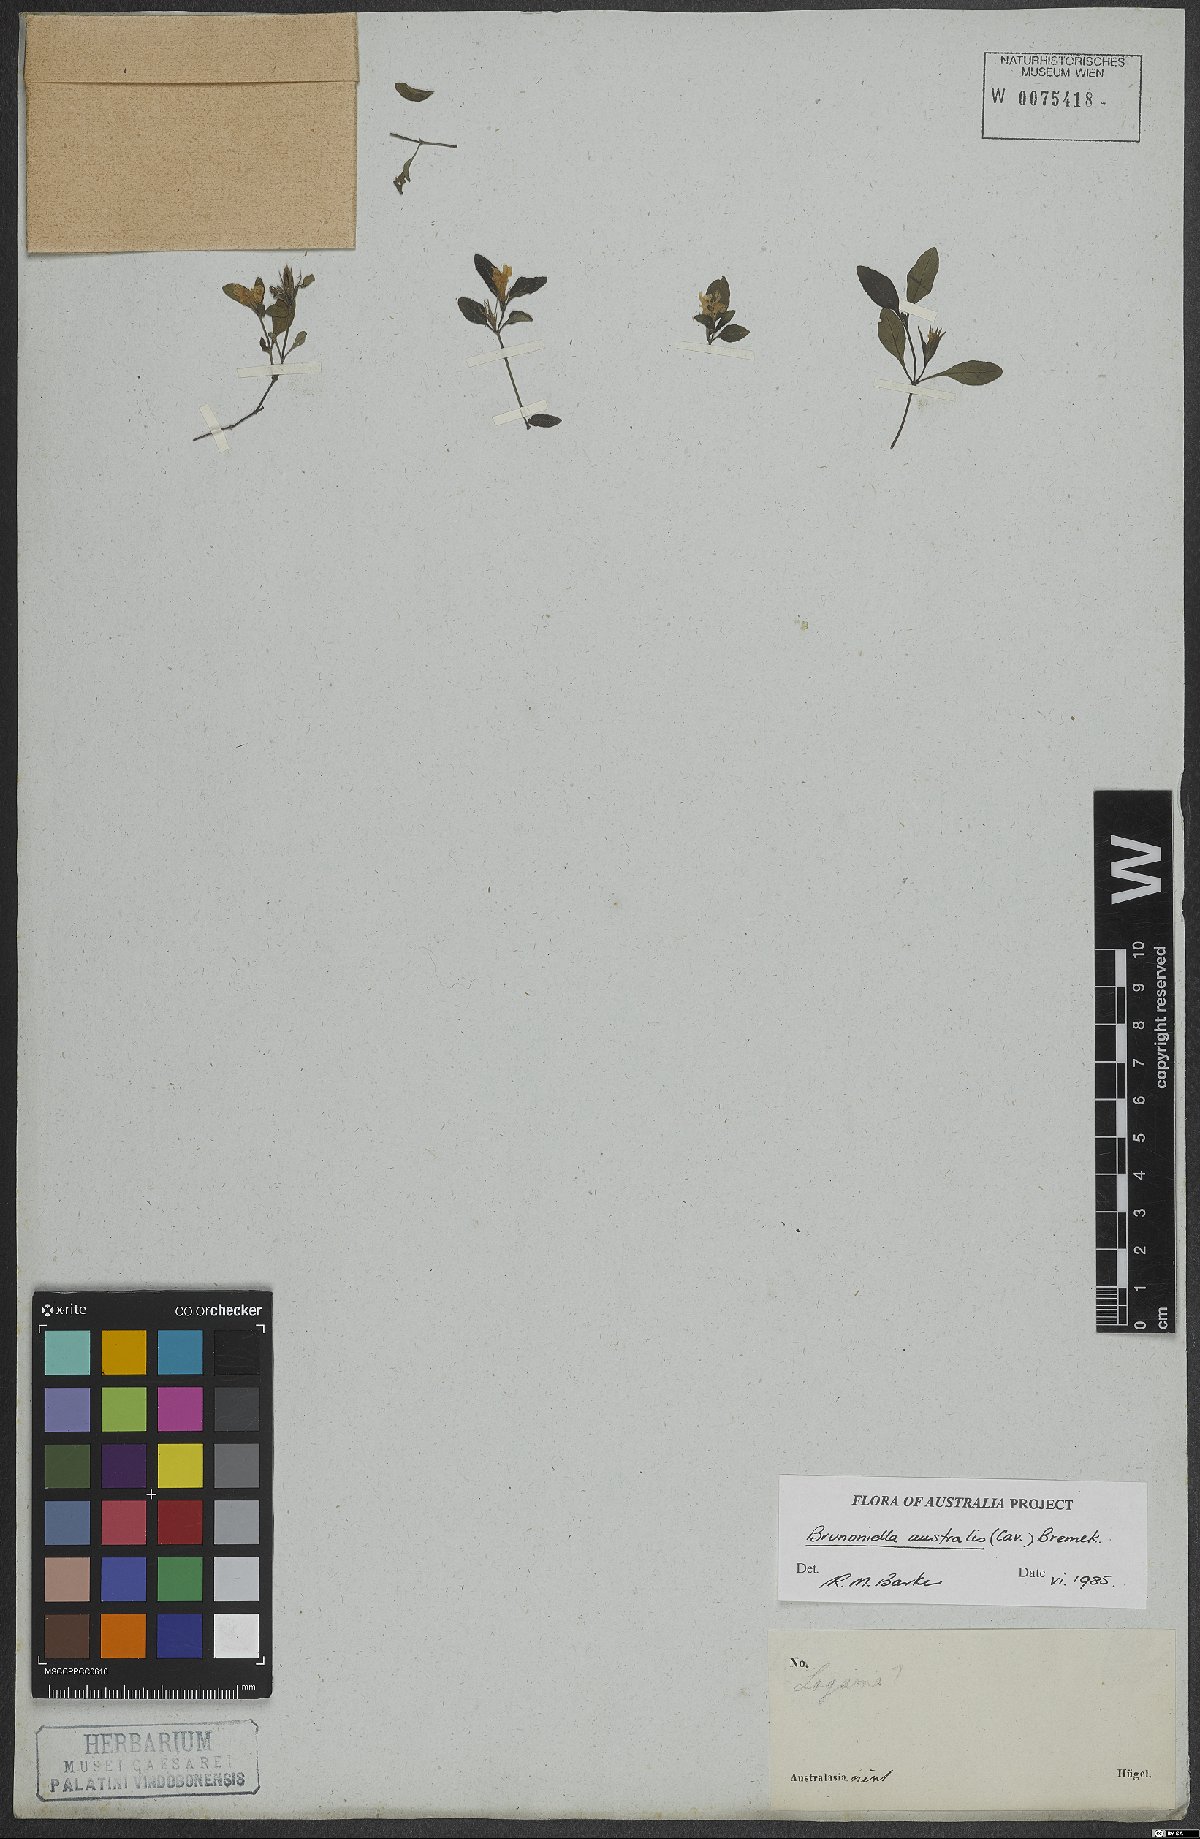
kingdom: Plantae
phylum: Tracheophyta
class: Magnoliopsida
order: Lamiales
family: Acanthaceae
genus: Brunoniella
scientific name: Brunoniella australis
